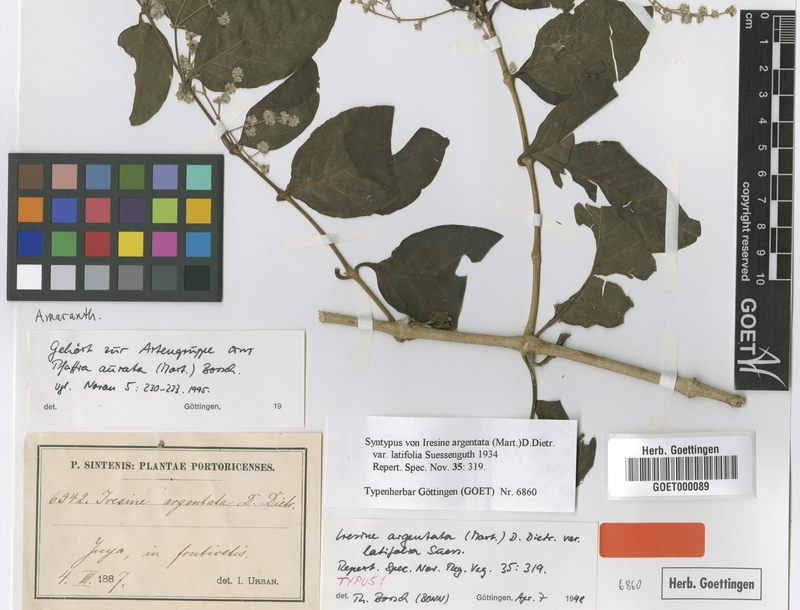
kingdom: Plantae
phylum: Tracheophyta
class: Magnoliopsida
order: Caryophyllales
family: Amaranthaceae
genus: Pedersenia
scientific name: Pedersenia argentata
